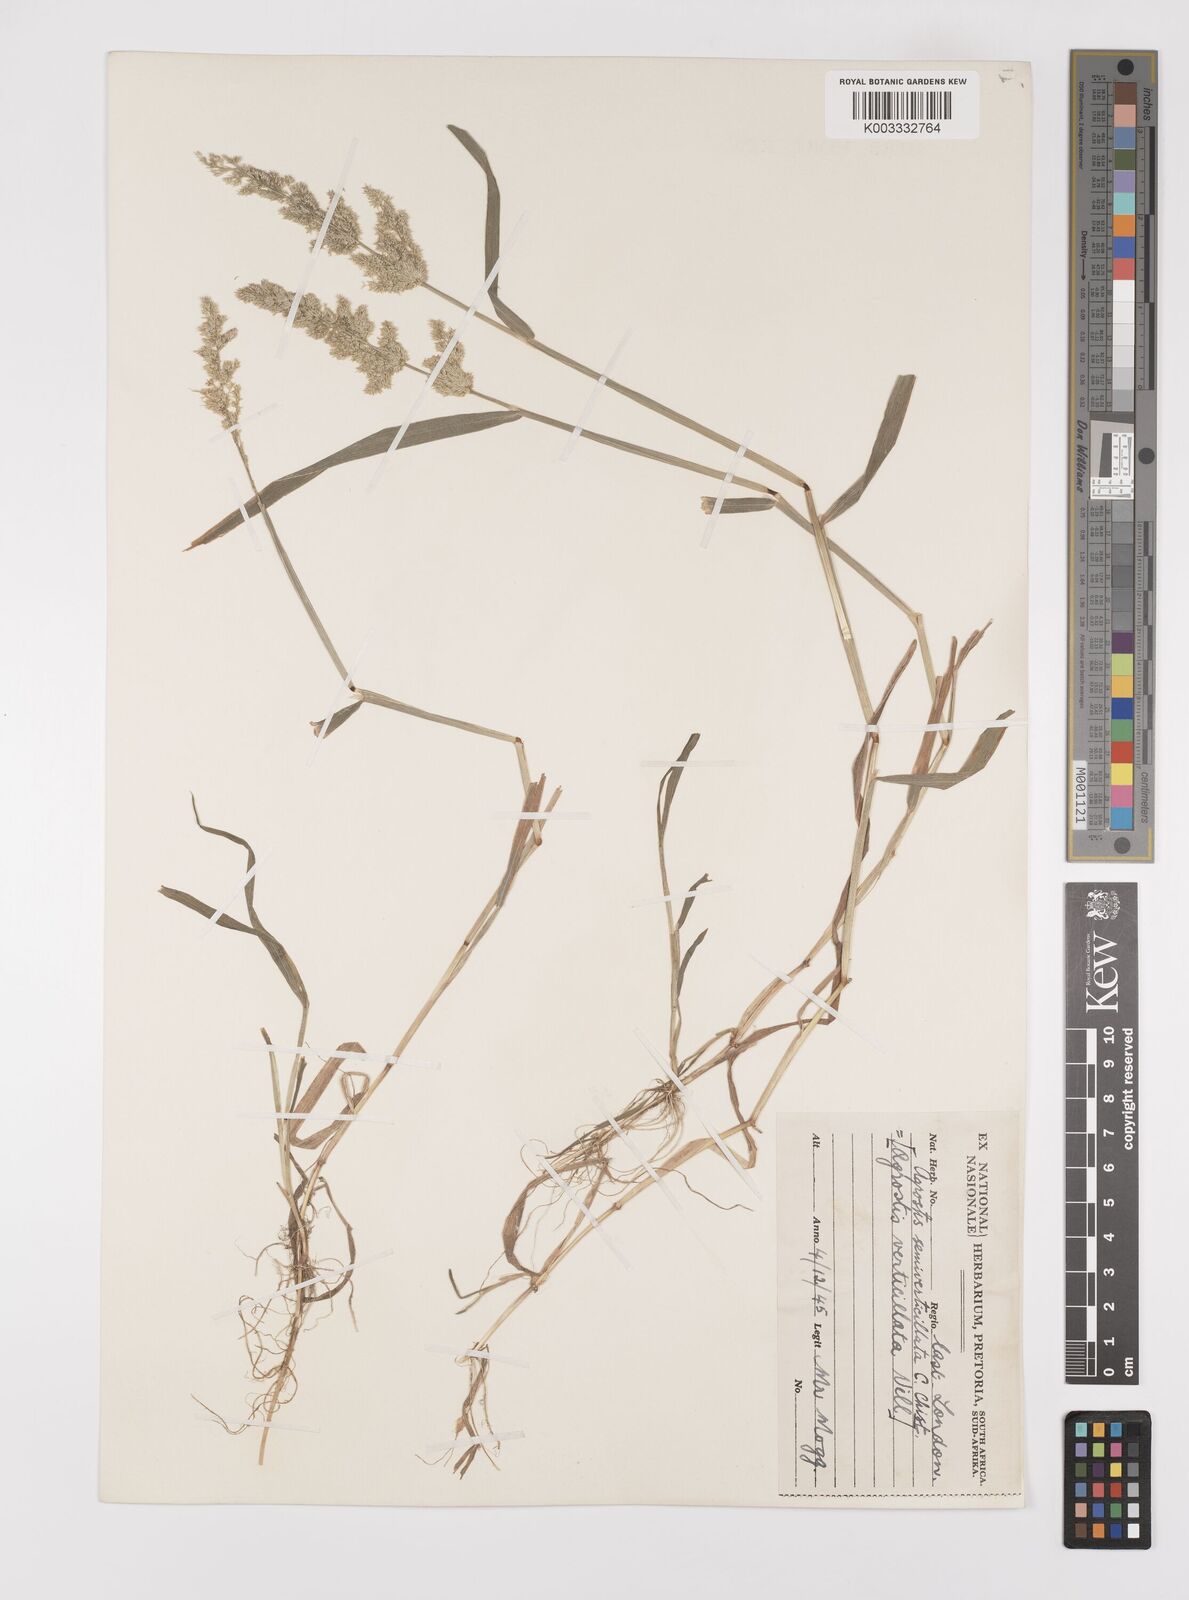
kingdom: Plantae
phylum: Tracheophyta
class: Liliopsida
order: Poales
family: Poaceae
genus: Polypogon
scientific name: Polypogon viridis
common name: Water bent
